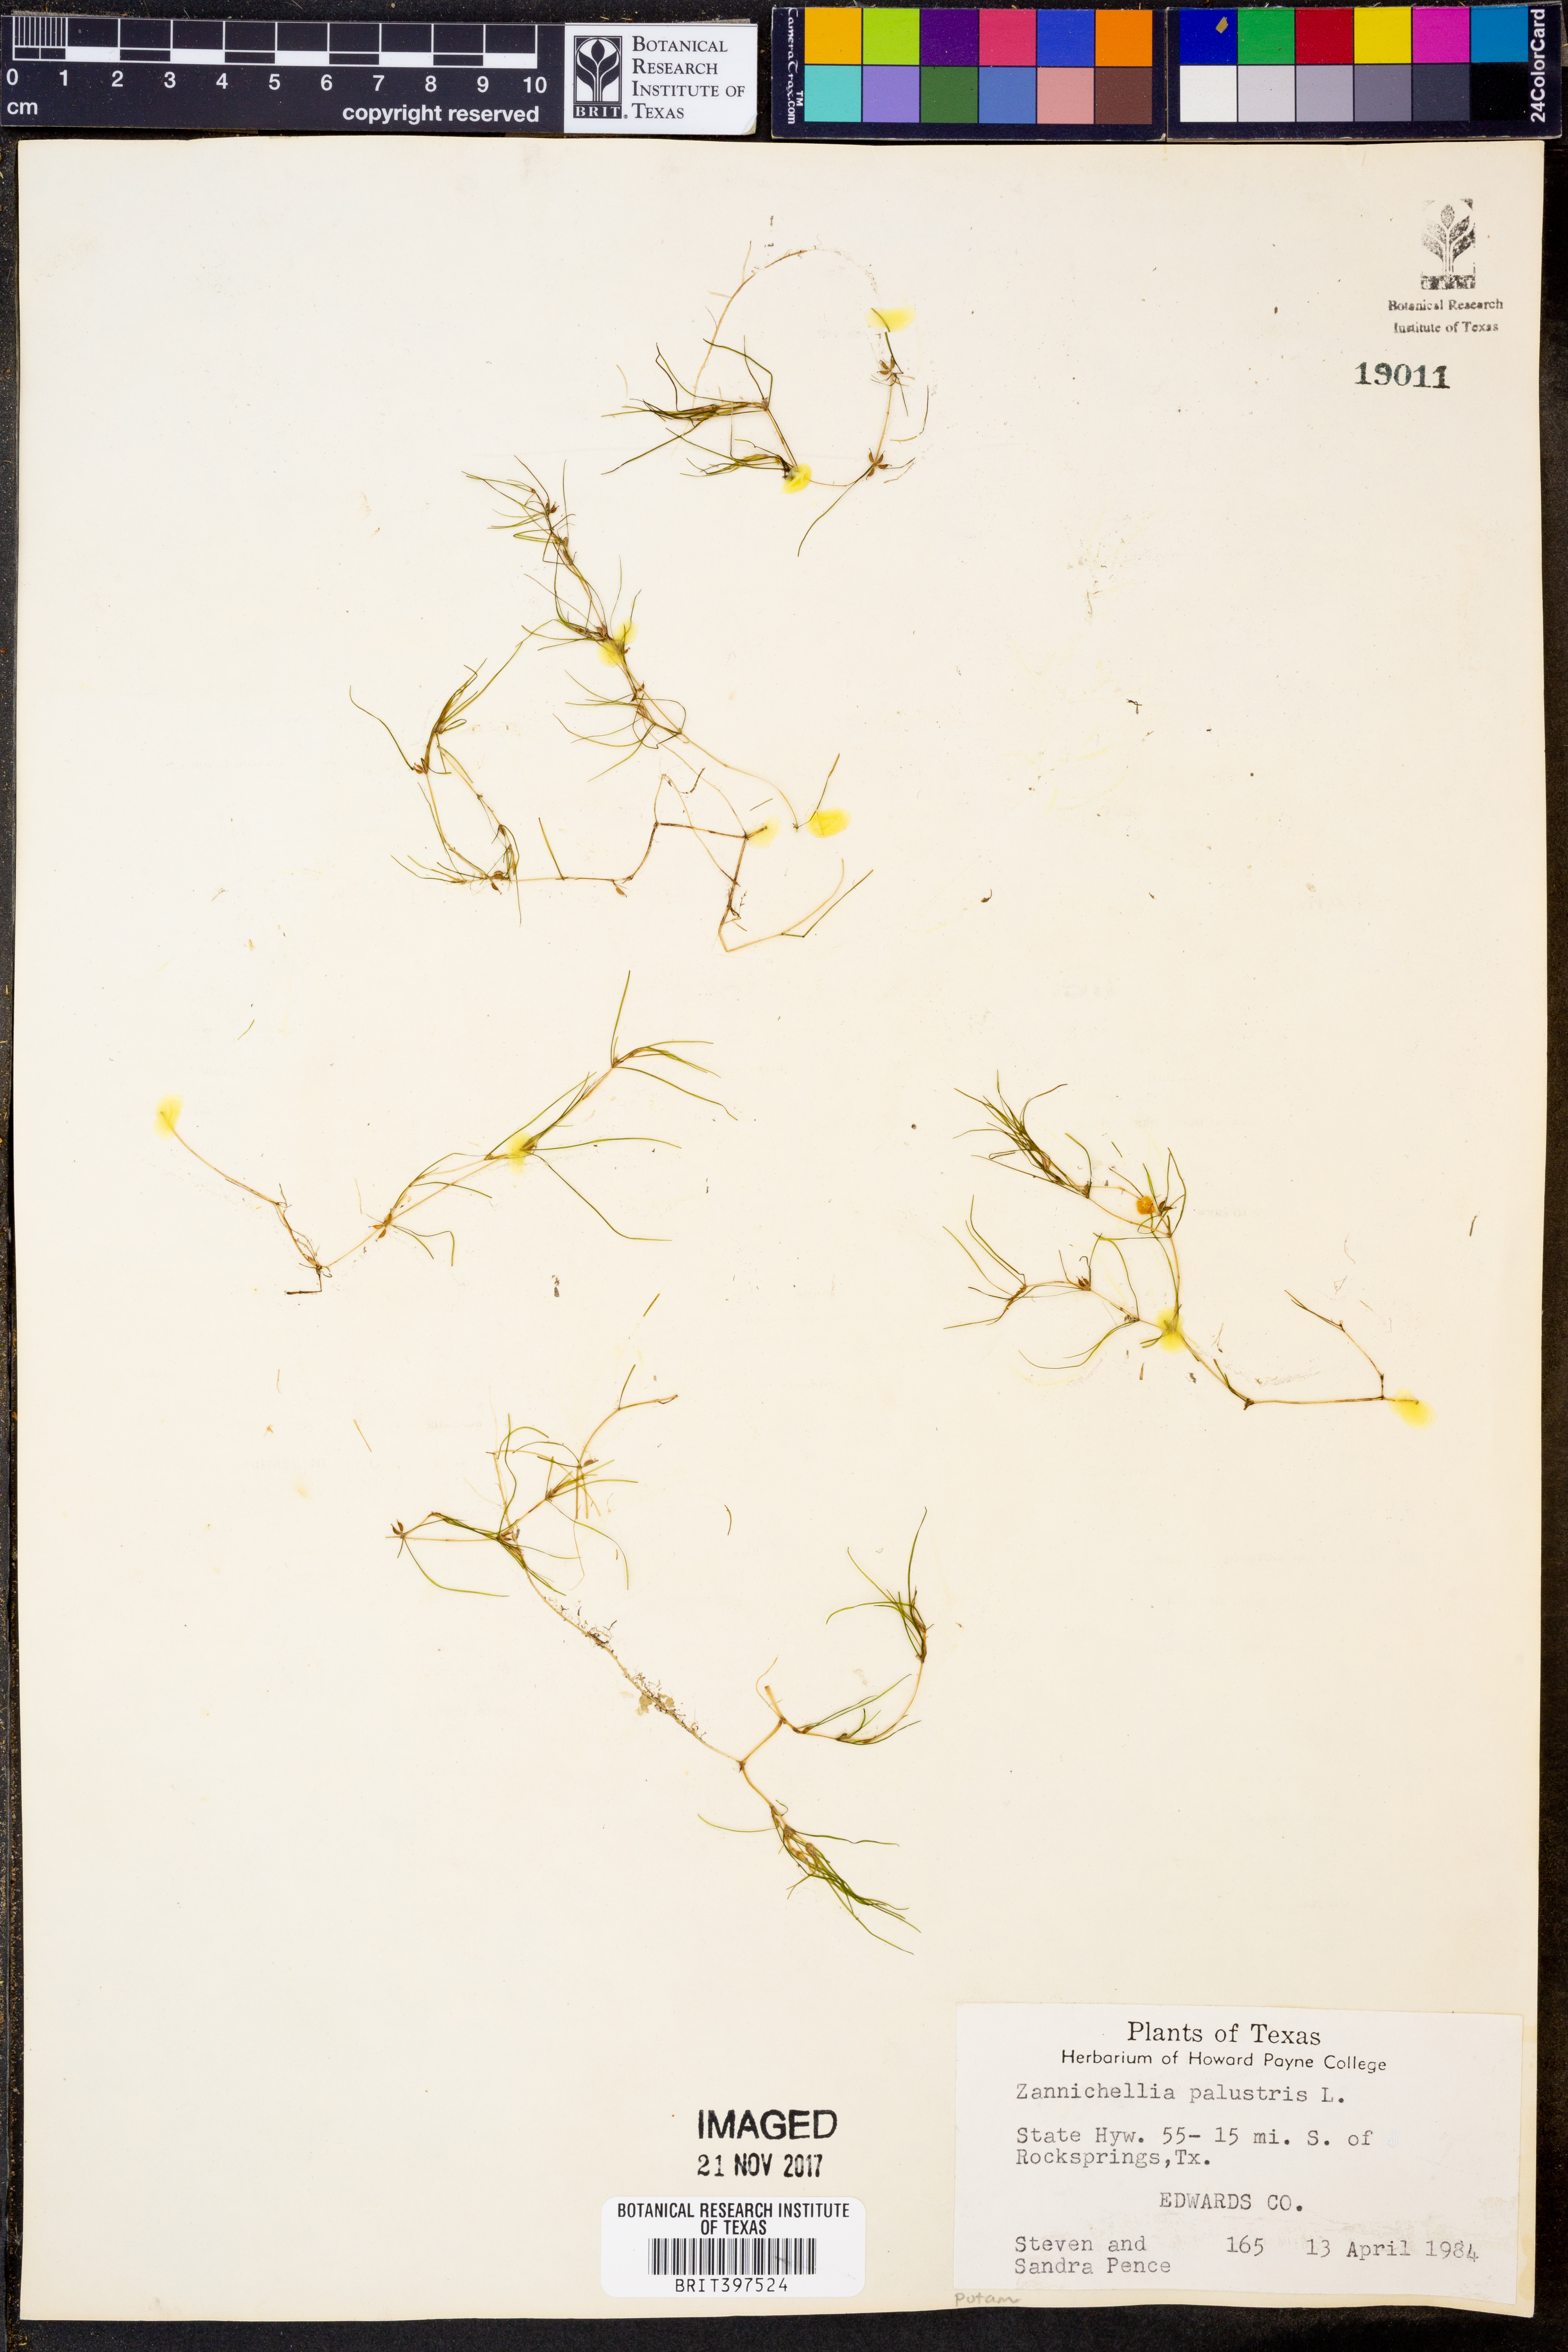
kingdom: Plantae
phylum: Tracheophyta
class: Liliopsida
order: Alismatales
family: Potamogetonaceae
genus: Zannichellia
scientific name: Zannichellia palustris
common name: Horned pondweed
